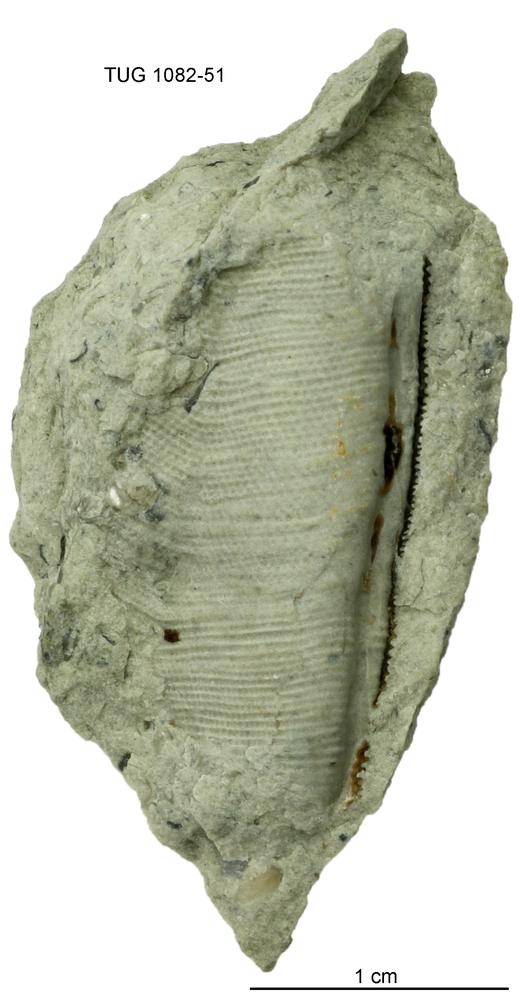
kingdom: Animalia
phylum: Cnidaria
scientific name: Cnidaria
